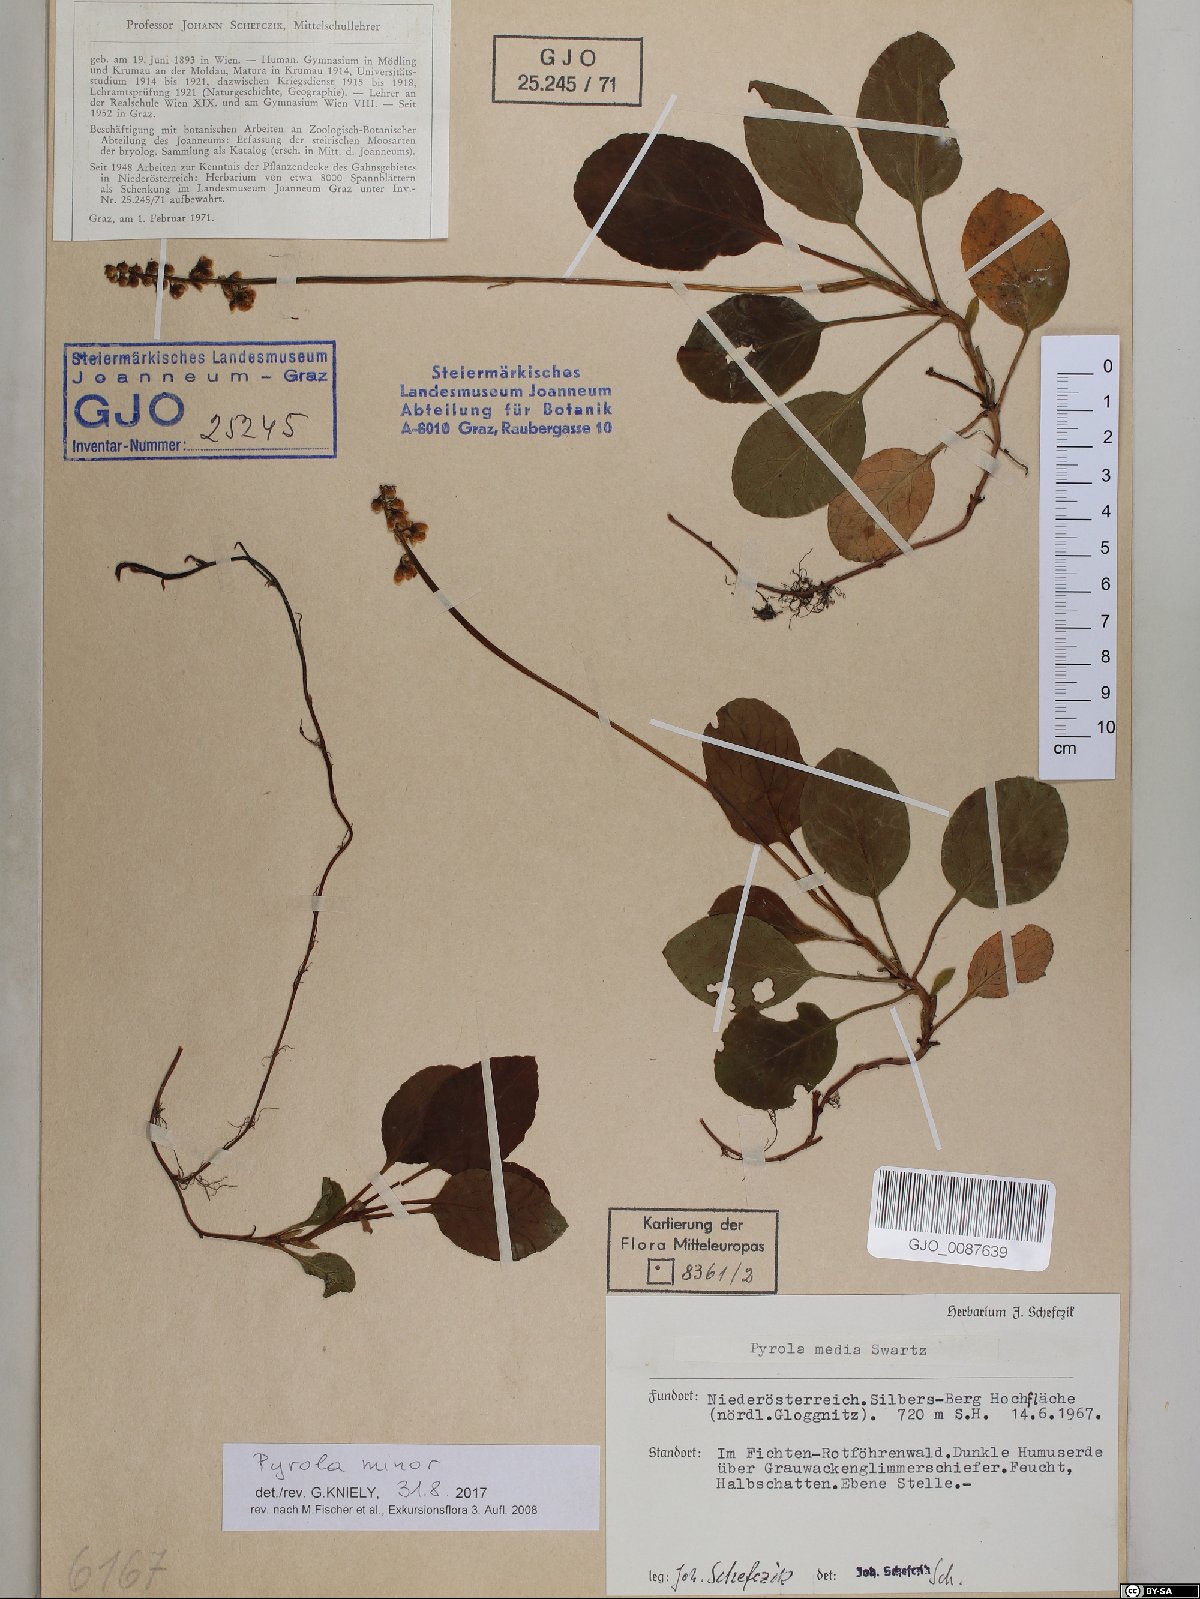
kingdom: Plantae
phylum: Tracheophyta
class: Magnoliopsida
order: Ericales
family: Ericaceae
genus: Pyrola
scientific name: Pyrola minor
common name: Common wintergreen
